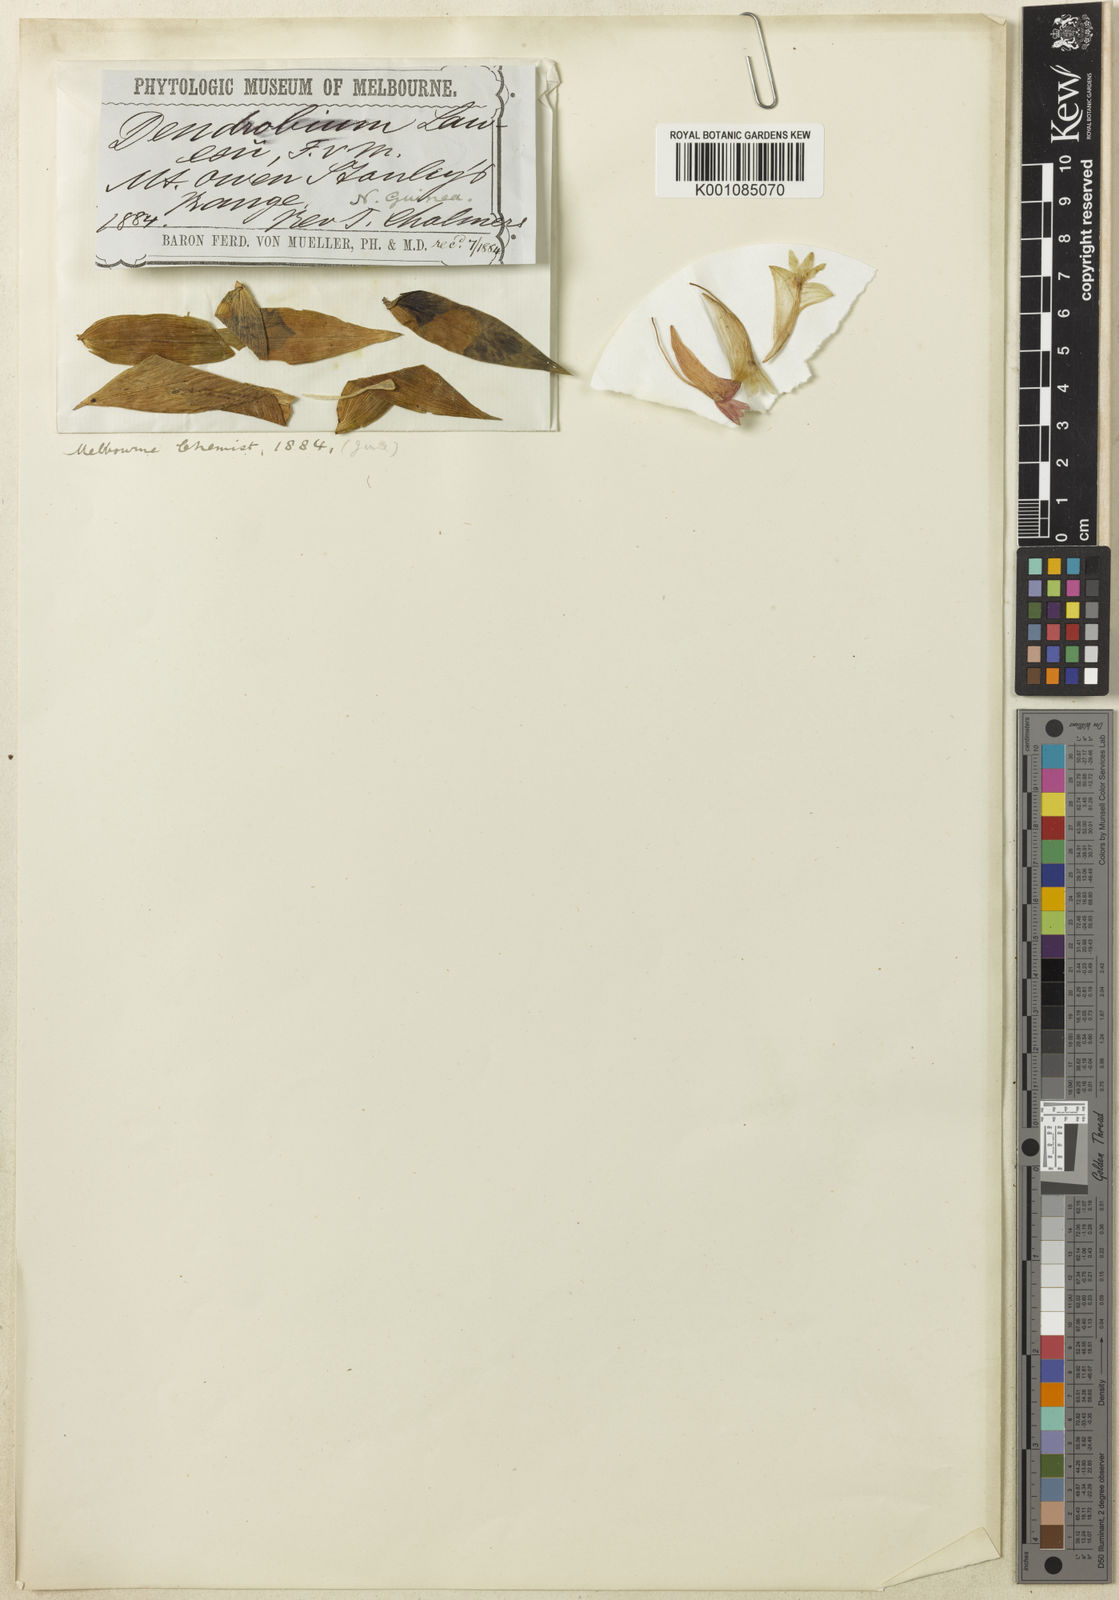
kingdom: Plantae
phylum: Tracheophyta
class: Liliopsida
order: Asparagales
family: Orchidaceae
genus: Dendrobium
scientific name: Dendrobium lawesii
